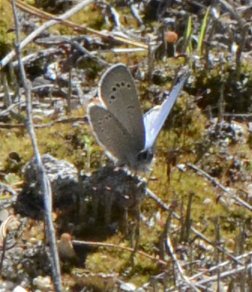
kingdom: Animalia
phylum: Arthropoda
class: Insecta
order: Lepidoptera
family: Lycaenidae
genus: Glaucopsyche
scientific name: Glaucopsyche lygdamus
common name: Silvery Blue
